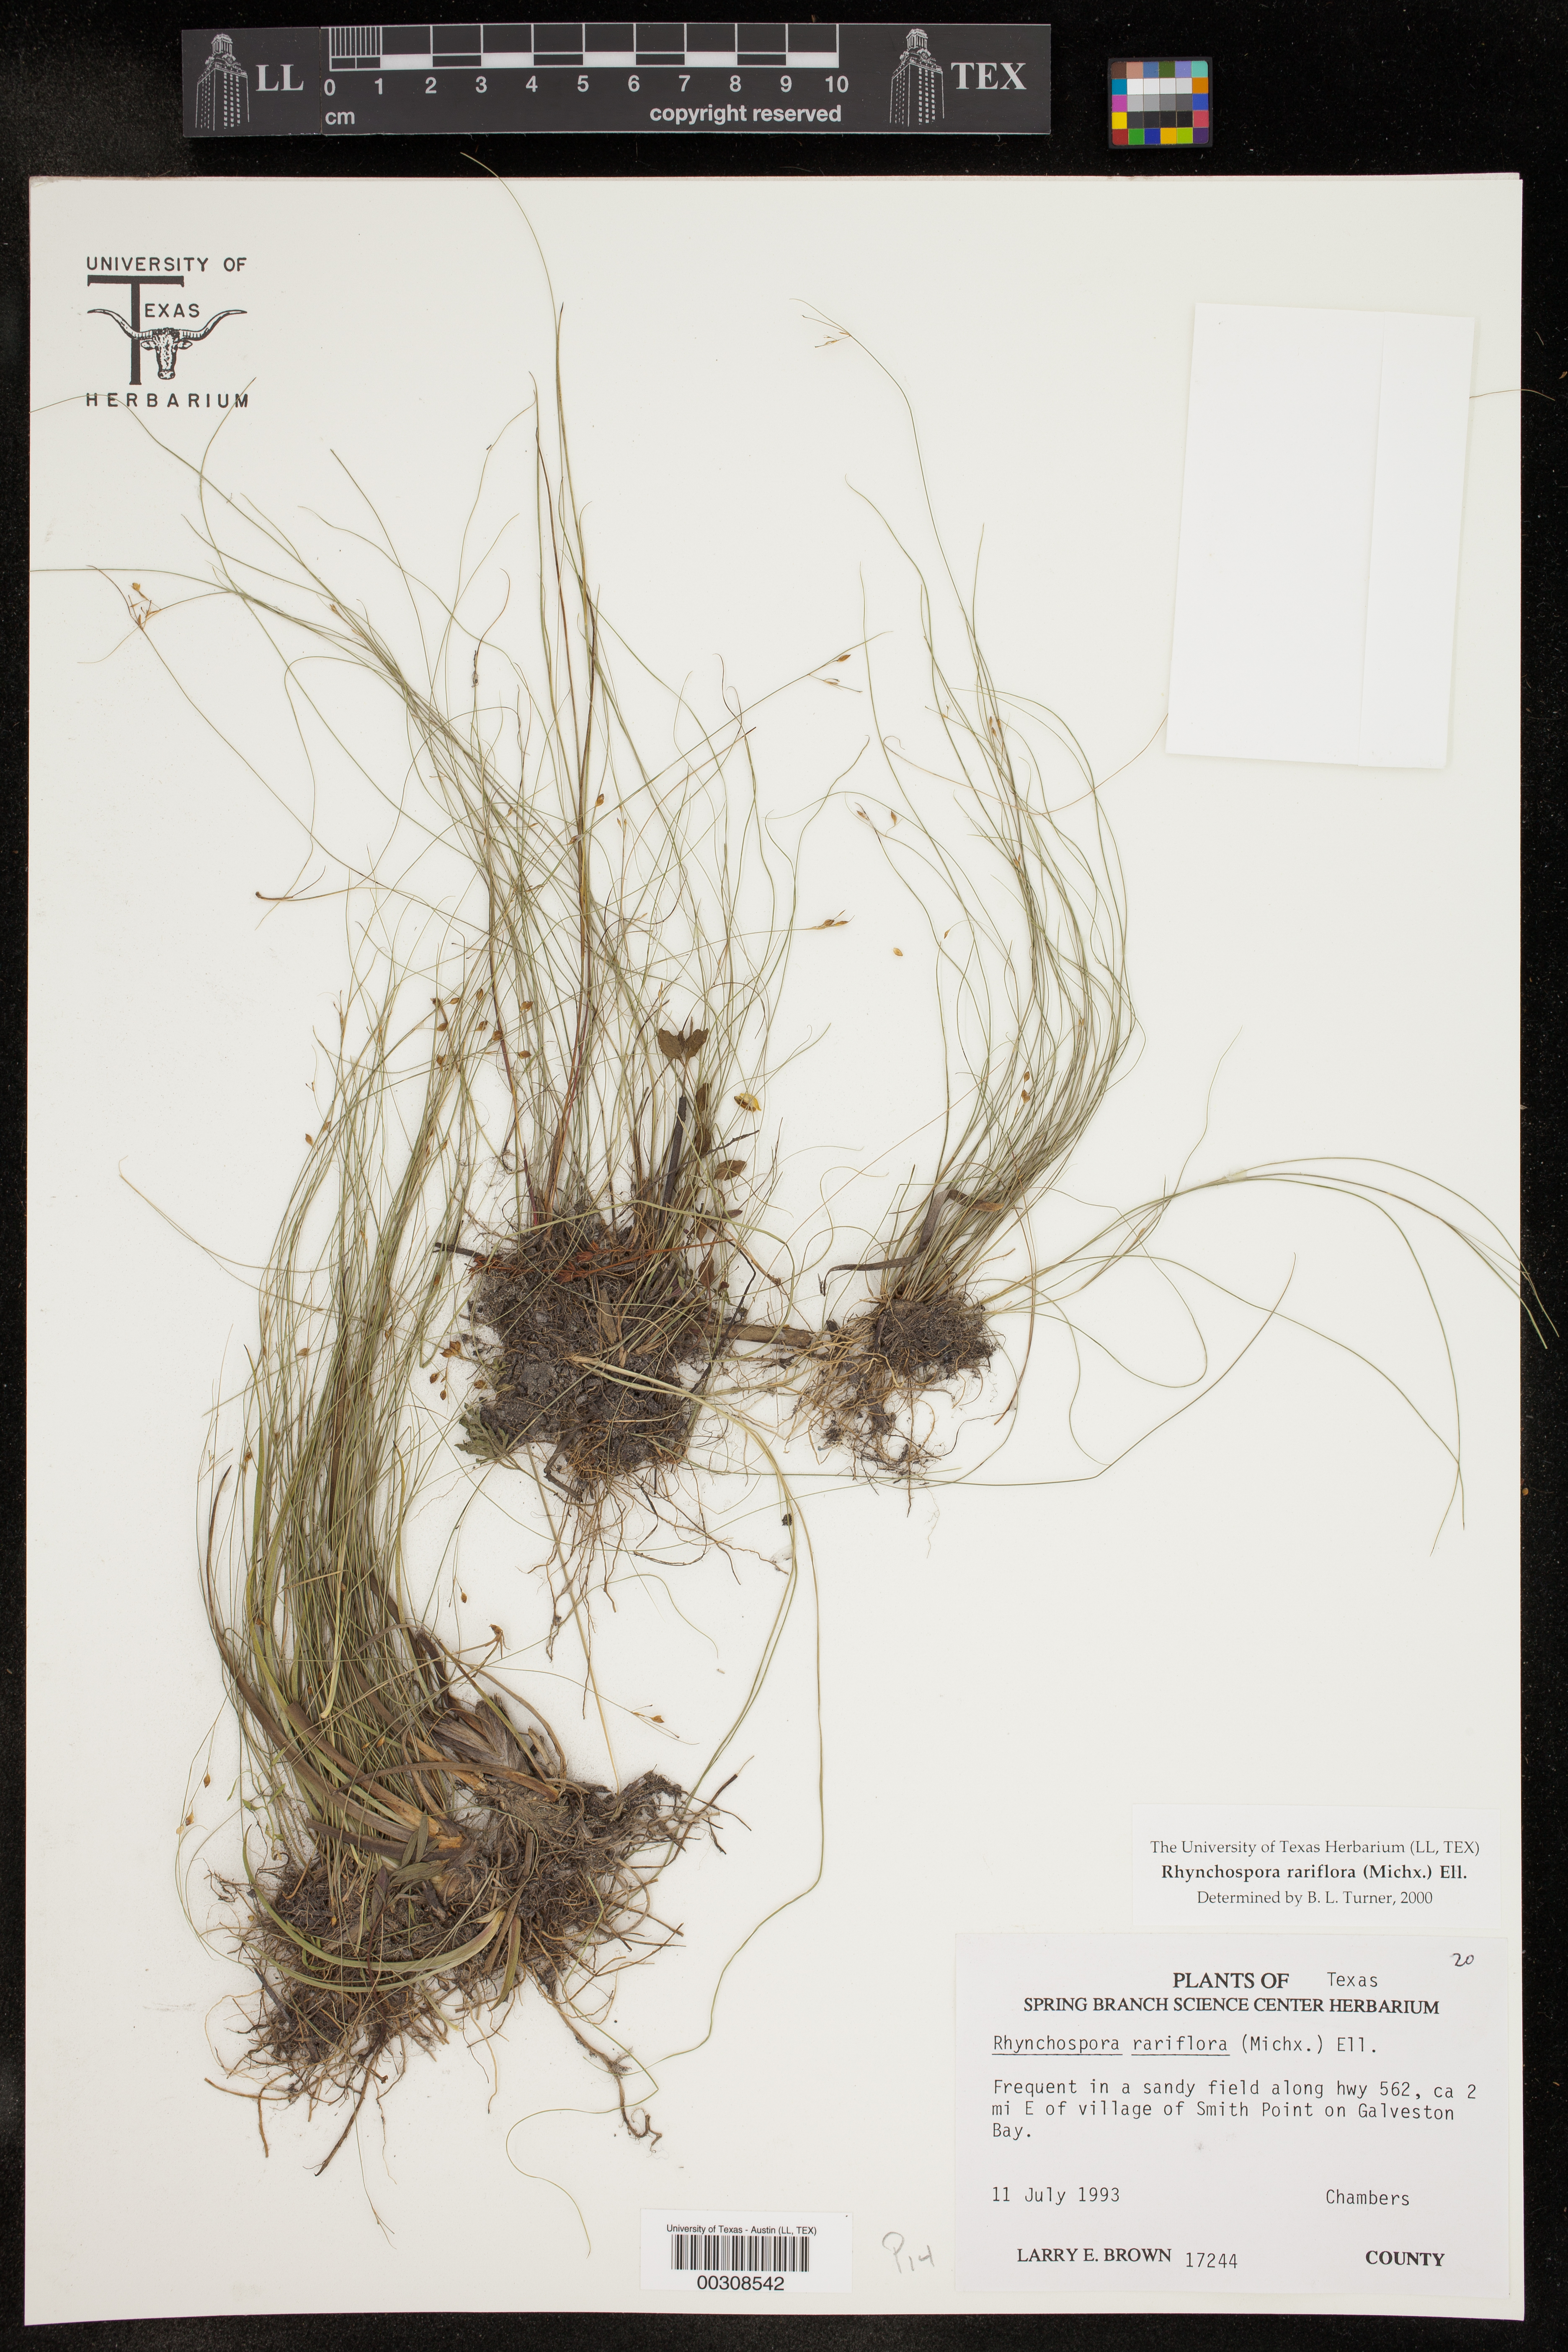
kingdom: Plantae
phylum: Tracheophyta
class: Liliopsida
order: Poales
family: Cyperaceae
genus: Rhynchospora
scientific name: Rhynchospora rariflora
